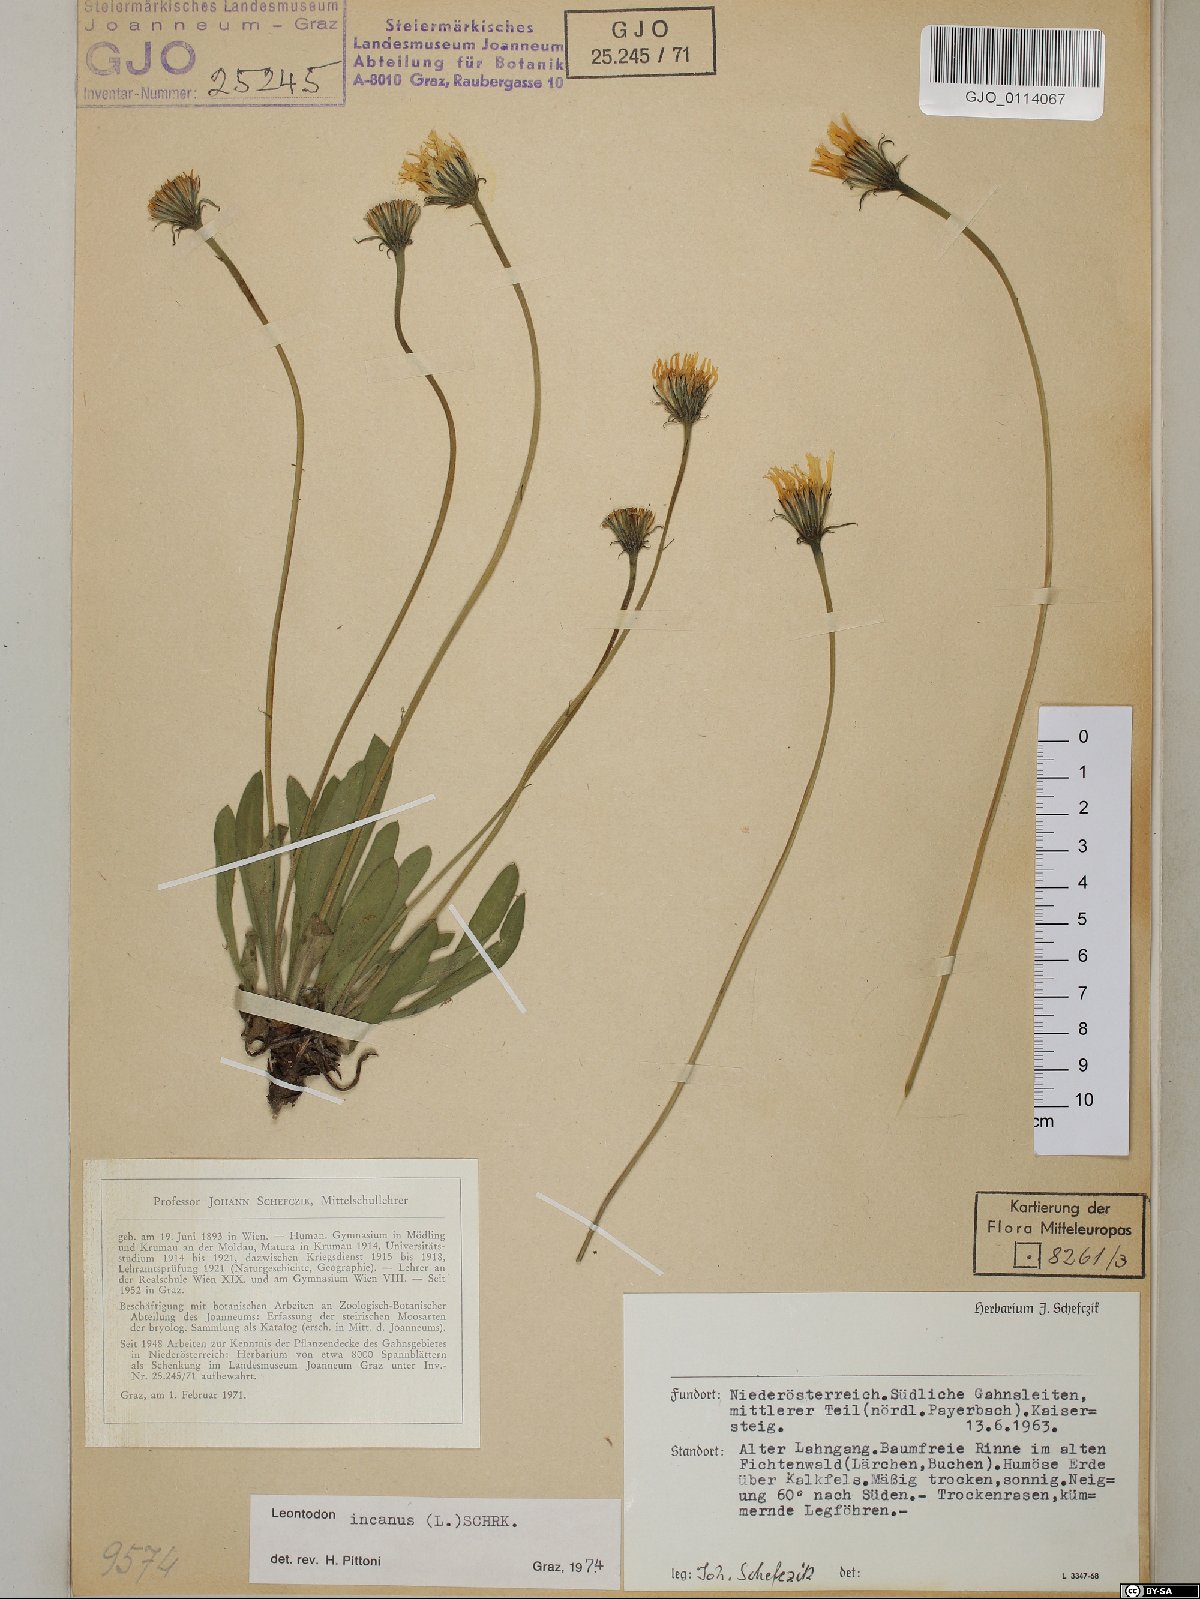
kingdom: Plantae
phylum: Tracheophyta
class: Magnoliopsida
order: Asterales
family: Asteraceae
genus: Leontodon
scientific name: Leontodon incanus
